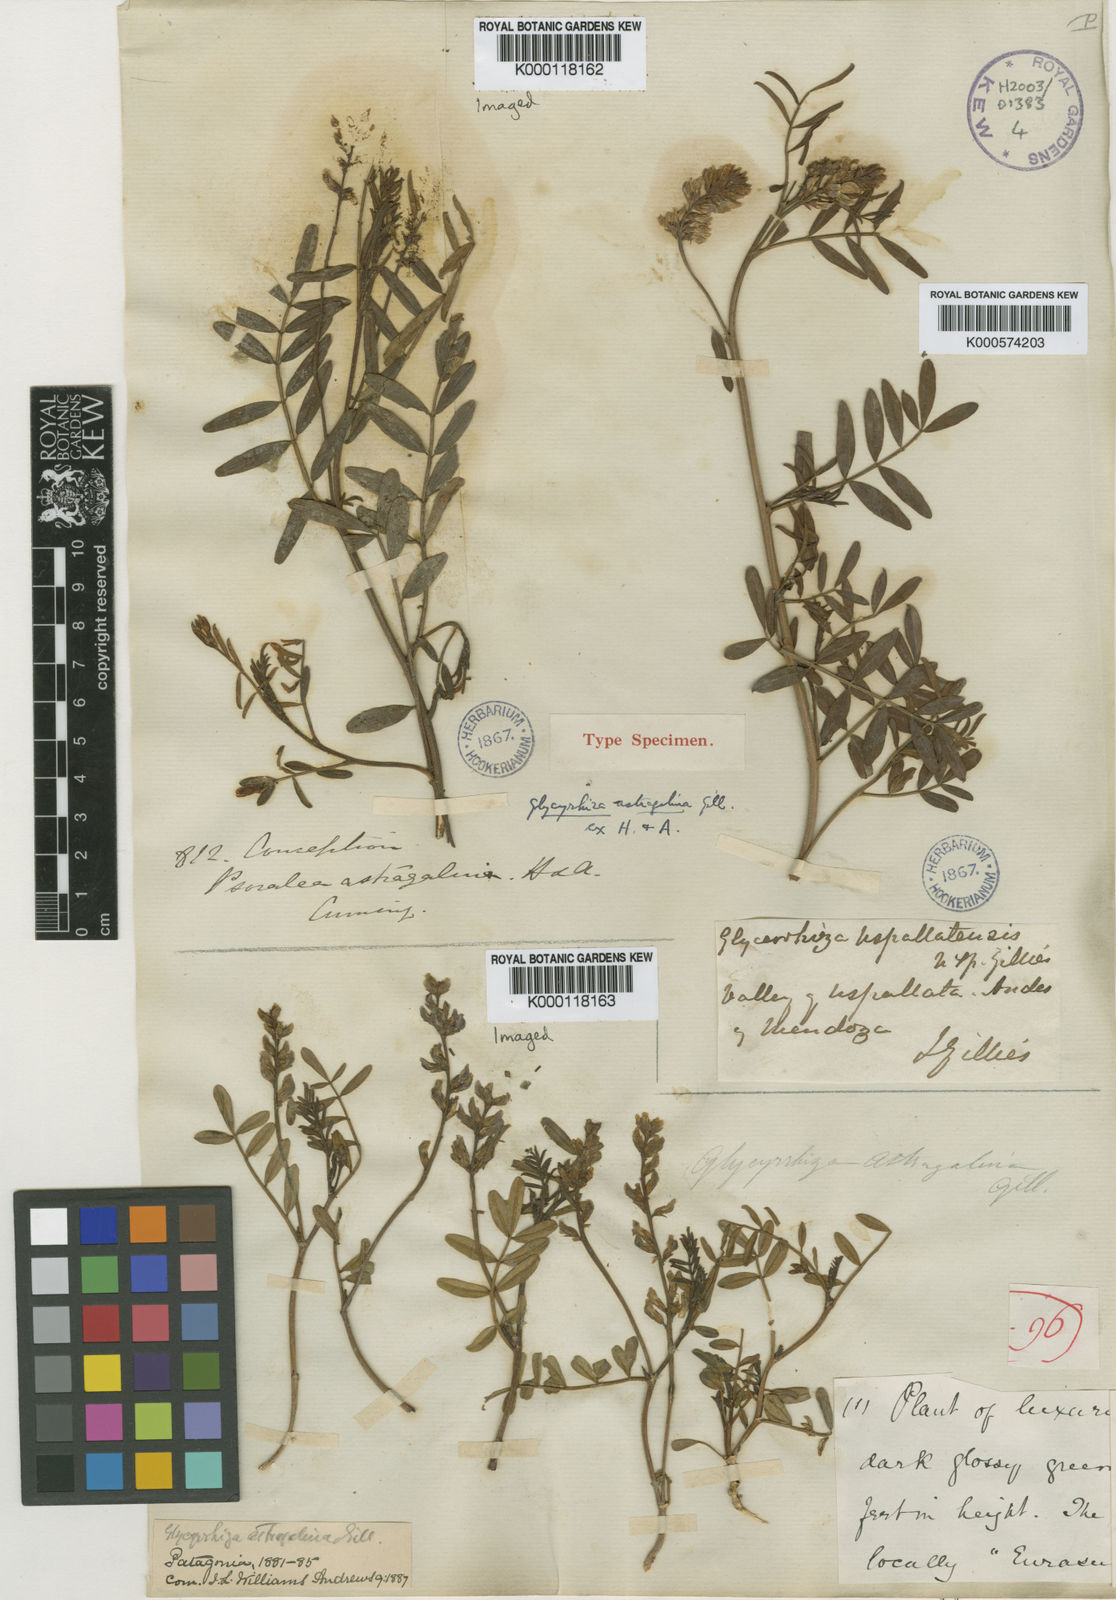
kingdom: Plantae
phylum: Tracheophyta
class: Magnoliopsida
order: Fabales
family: Fabaceae
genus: Glycyrrhiza
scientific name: Glycyrrhiza astragalina
